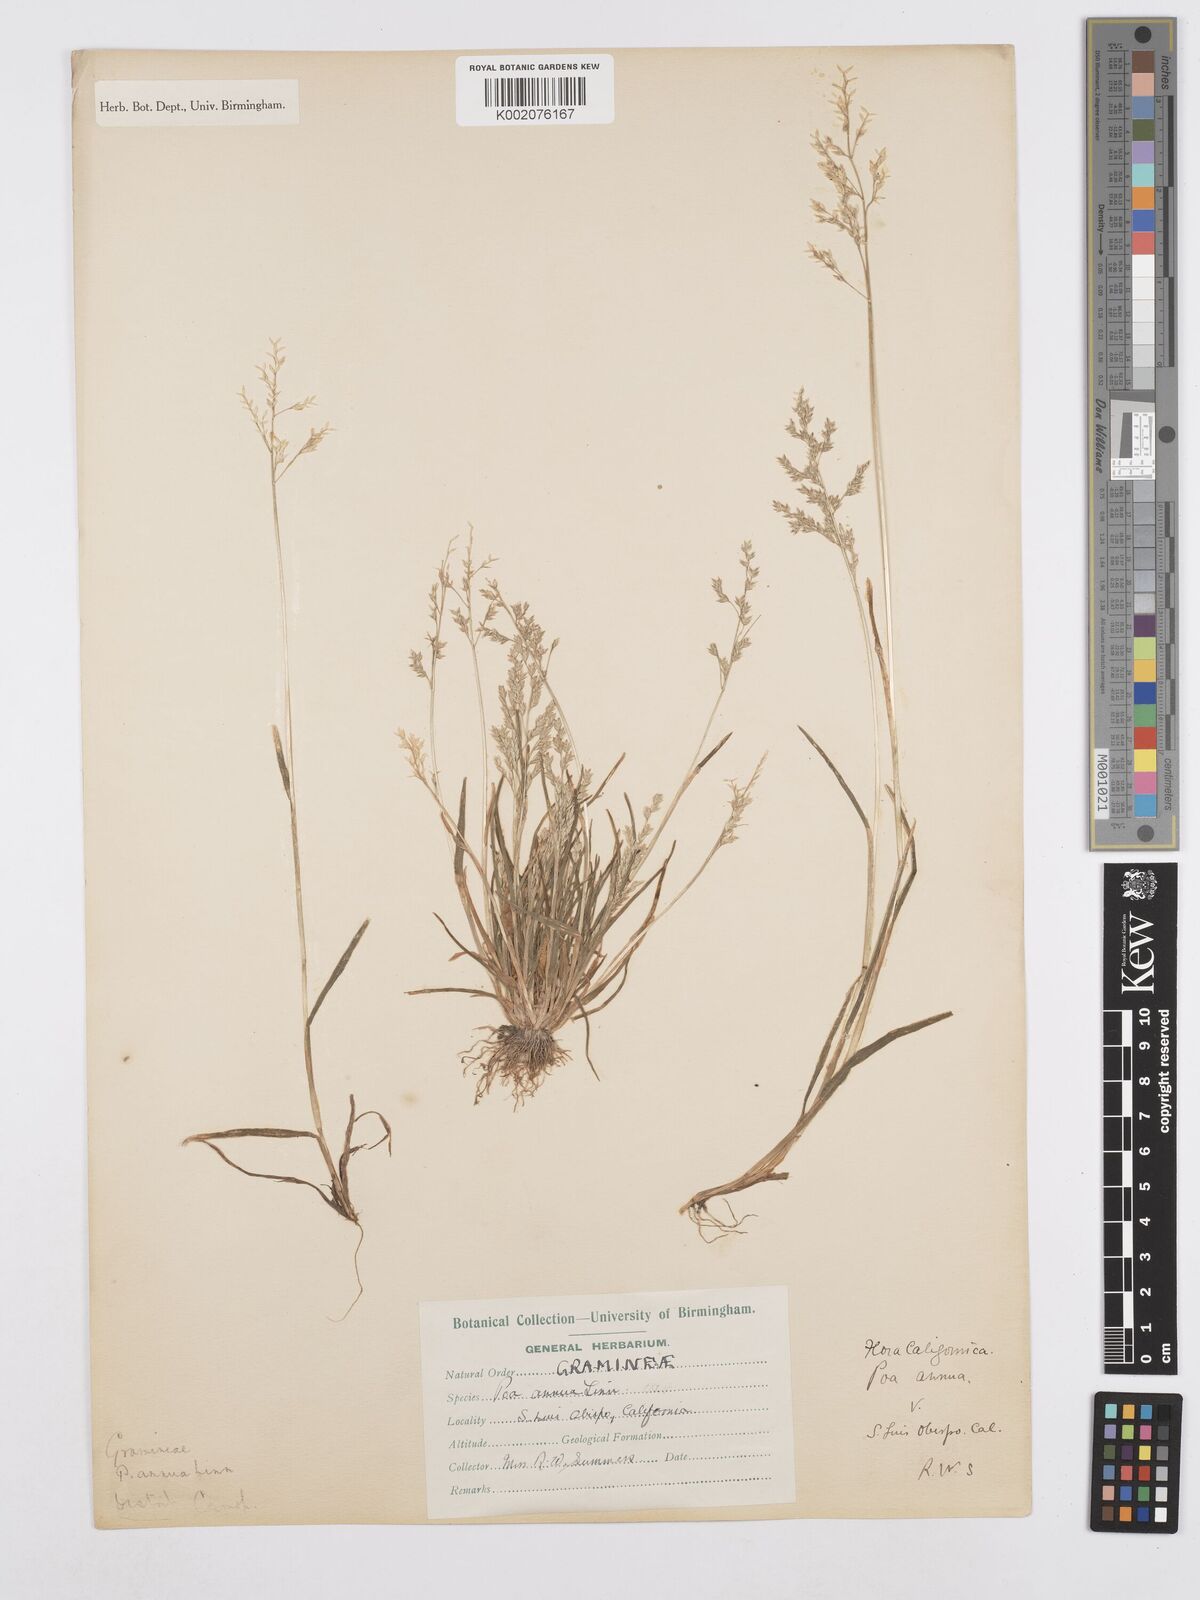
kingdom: Plantae
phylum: Tracheophyta
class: Liliopsida
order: Poales
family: Poaceae
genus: Poa
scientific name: Poa annua
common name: Annual bluegrass
